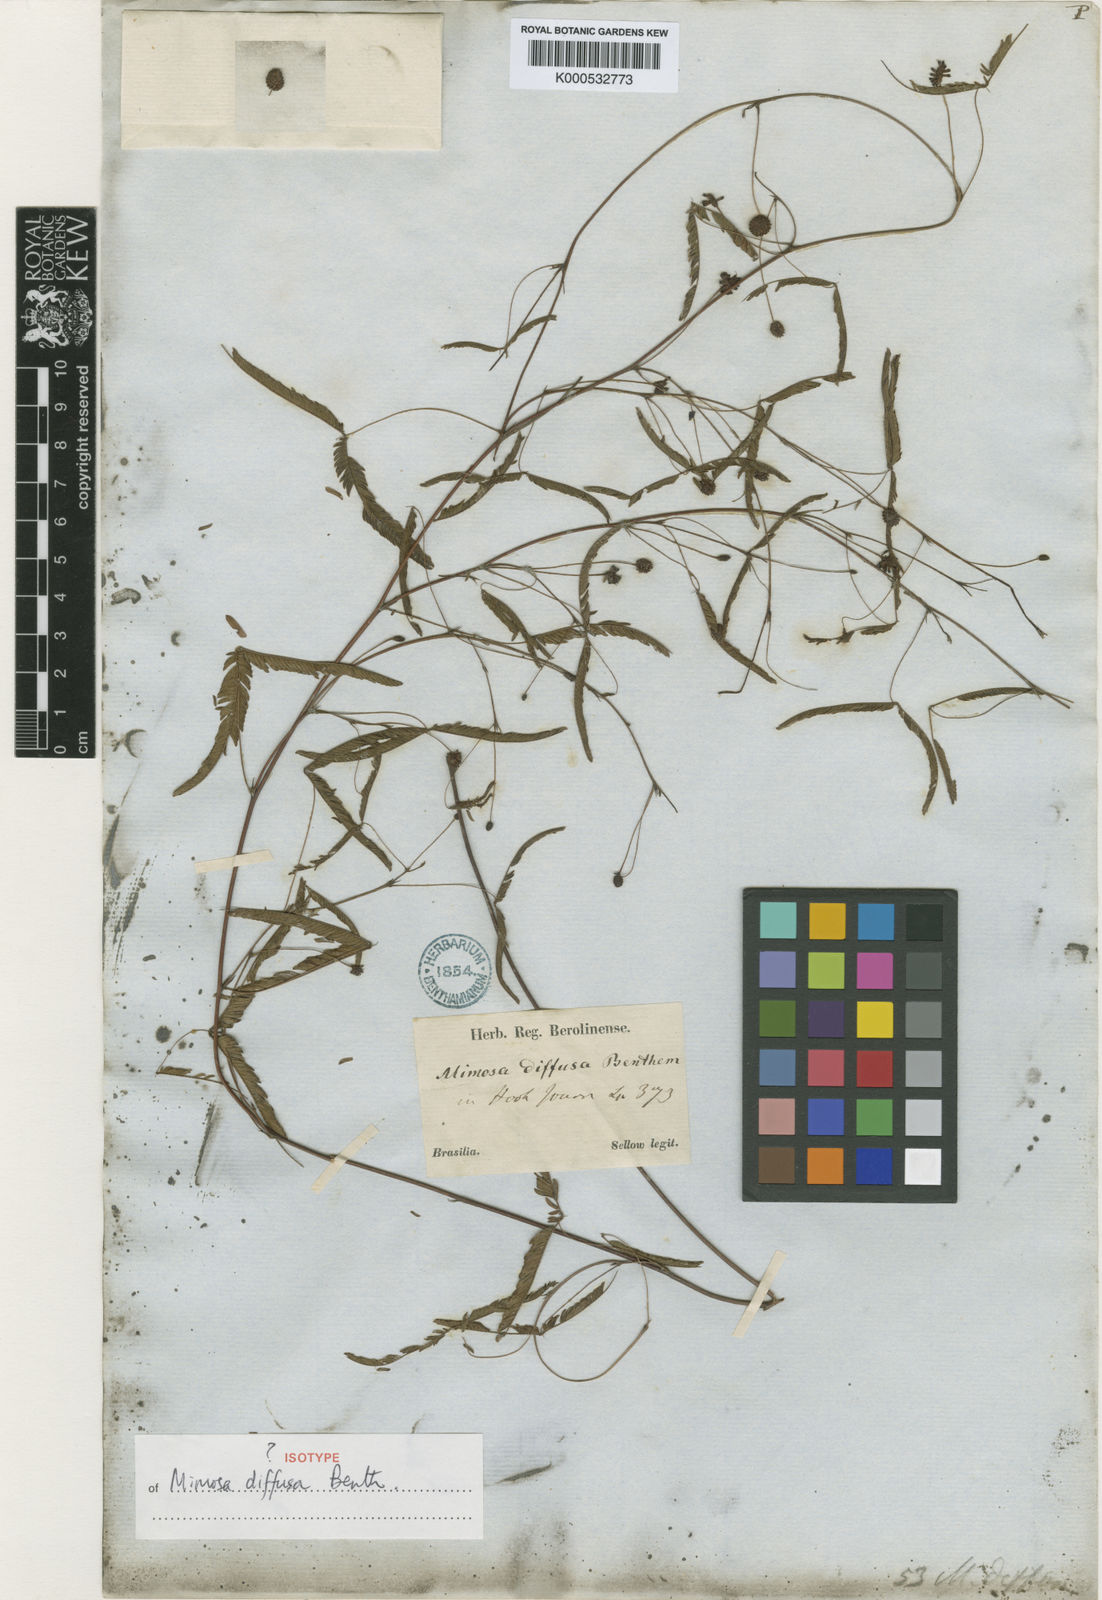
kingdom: Plantae
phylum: Tracheophyta
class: Magnoliopsida
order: Fabales
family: Fabaceae
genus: Mimosa
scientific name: Mimosa diffusa
